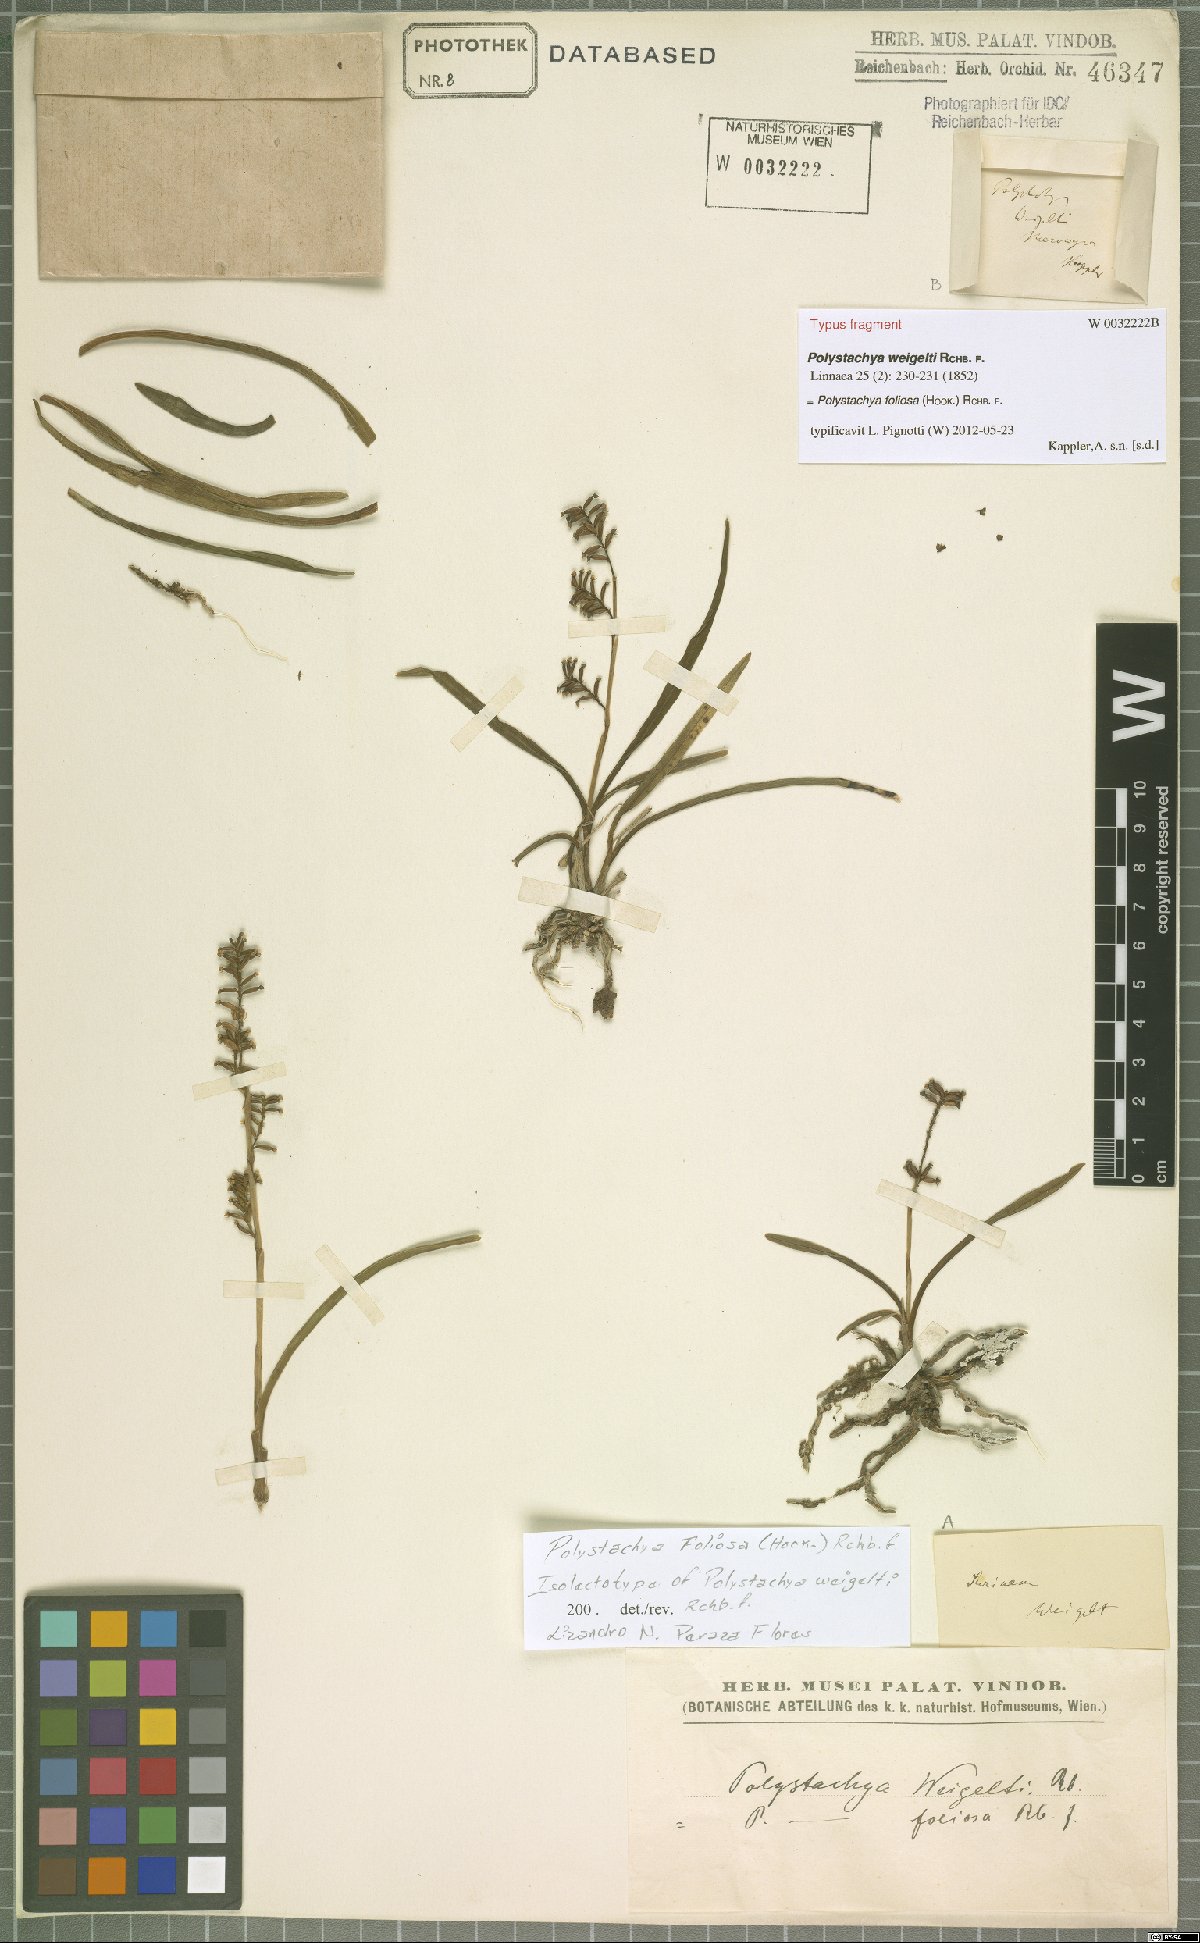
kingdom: Plantae
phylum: Tracheophyta
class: Liliopsida
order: Asparagales
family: Orchidaceae
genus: Polystachya
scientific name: Polystachya foliosa
